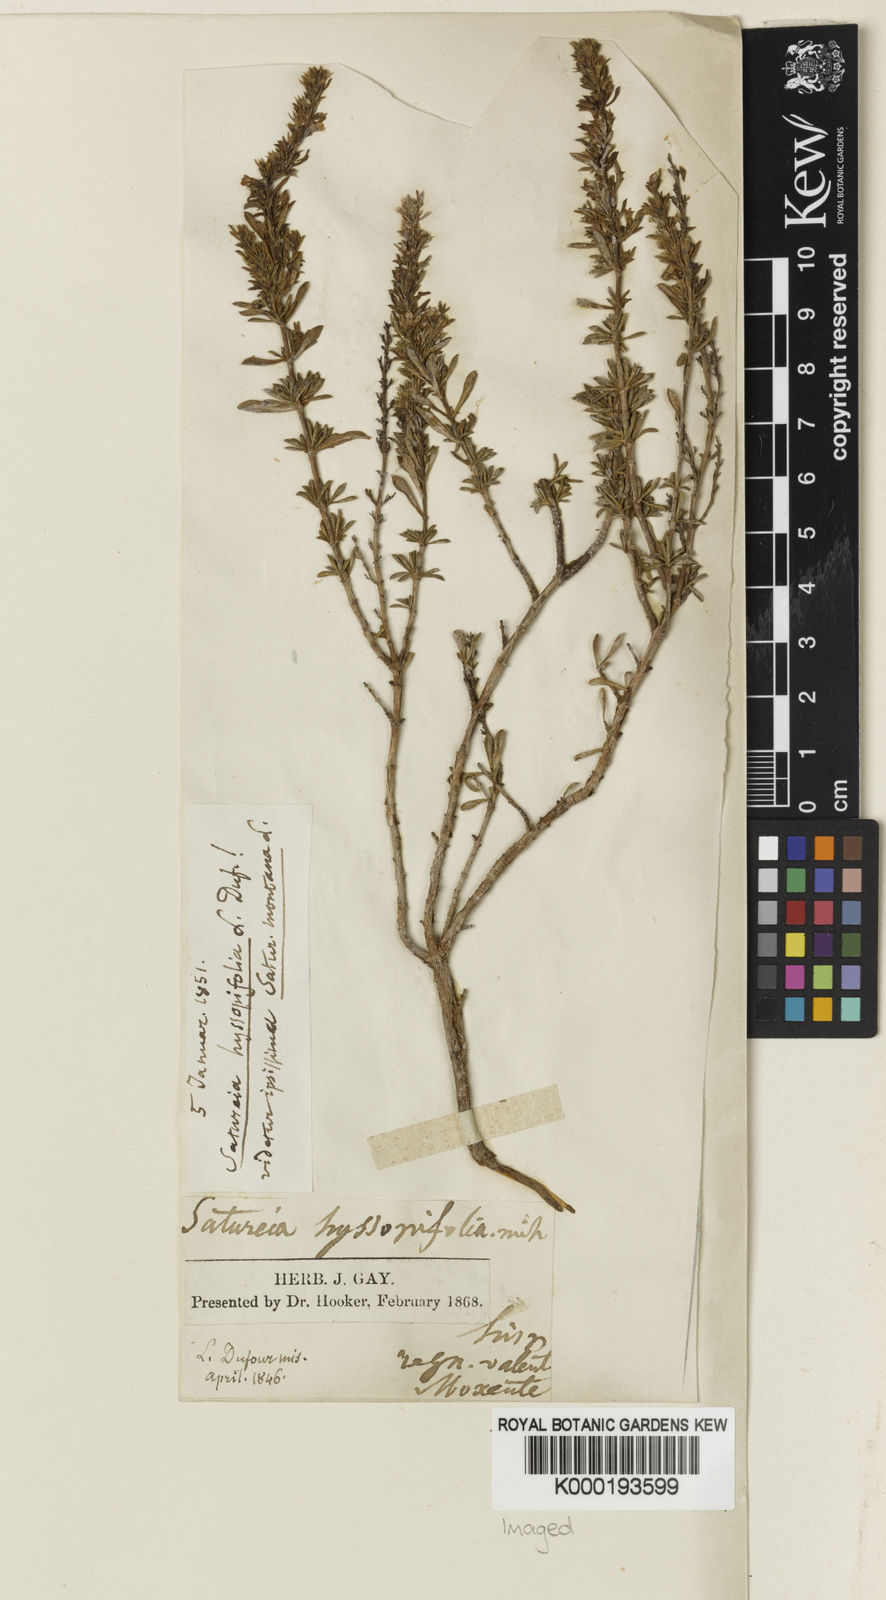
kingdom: Plantae
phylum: Tracheophyta
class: Magnoliopsida
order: Lamiales
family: Lamiaceae
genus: Satureja
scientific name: Satureja
